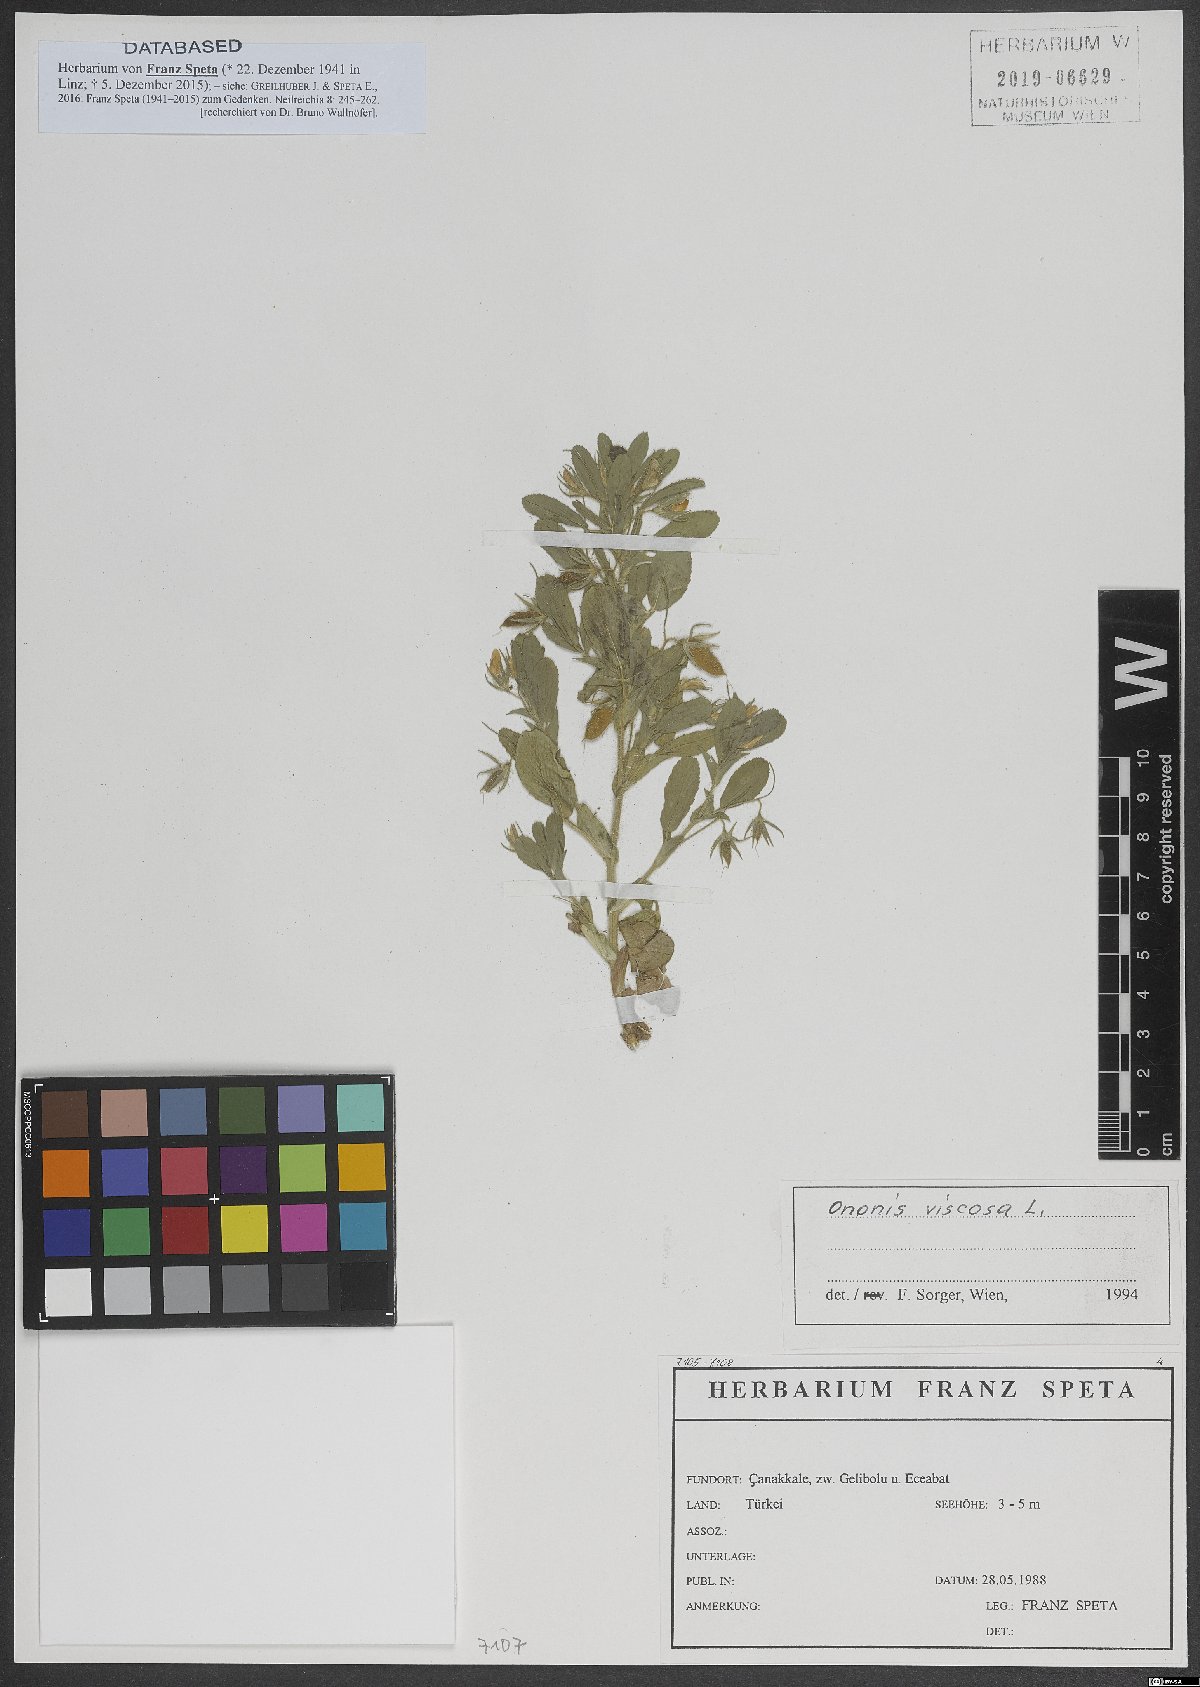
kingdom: Plantae
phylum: Tracheophyta
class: Magnoliopsida
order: Fabales
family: Fabaceae
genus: Ononis
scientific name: Ononis viscosa
